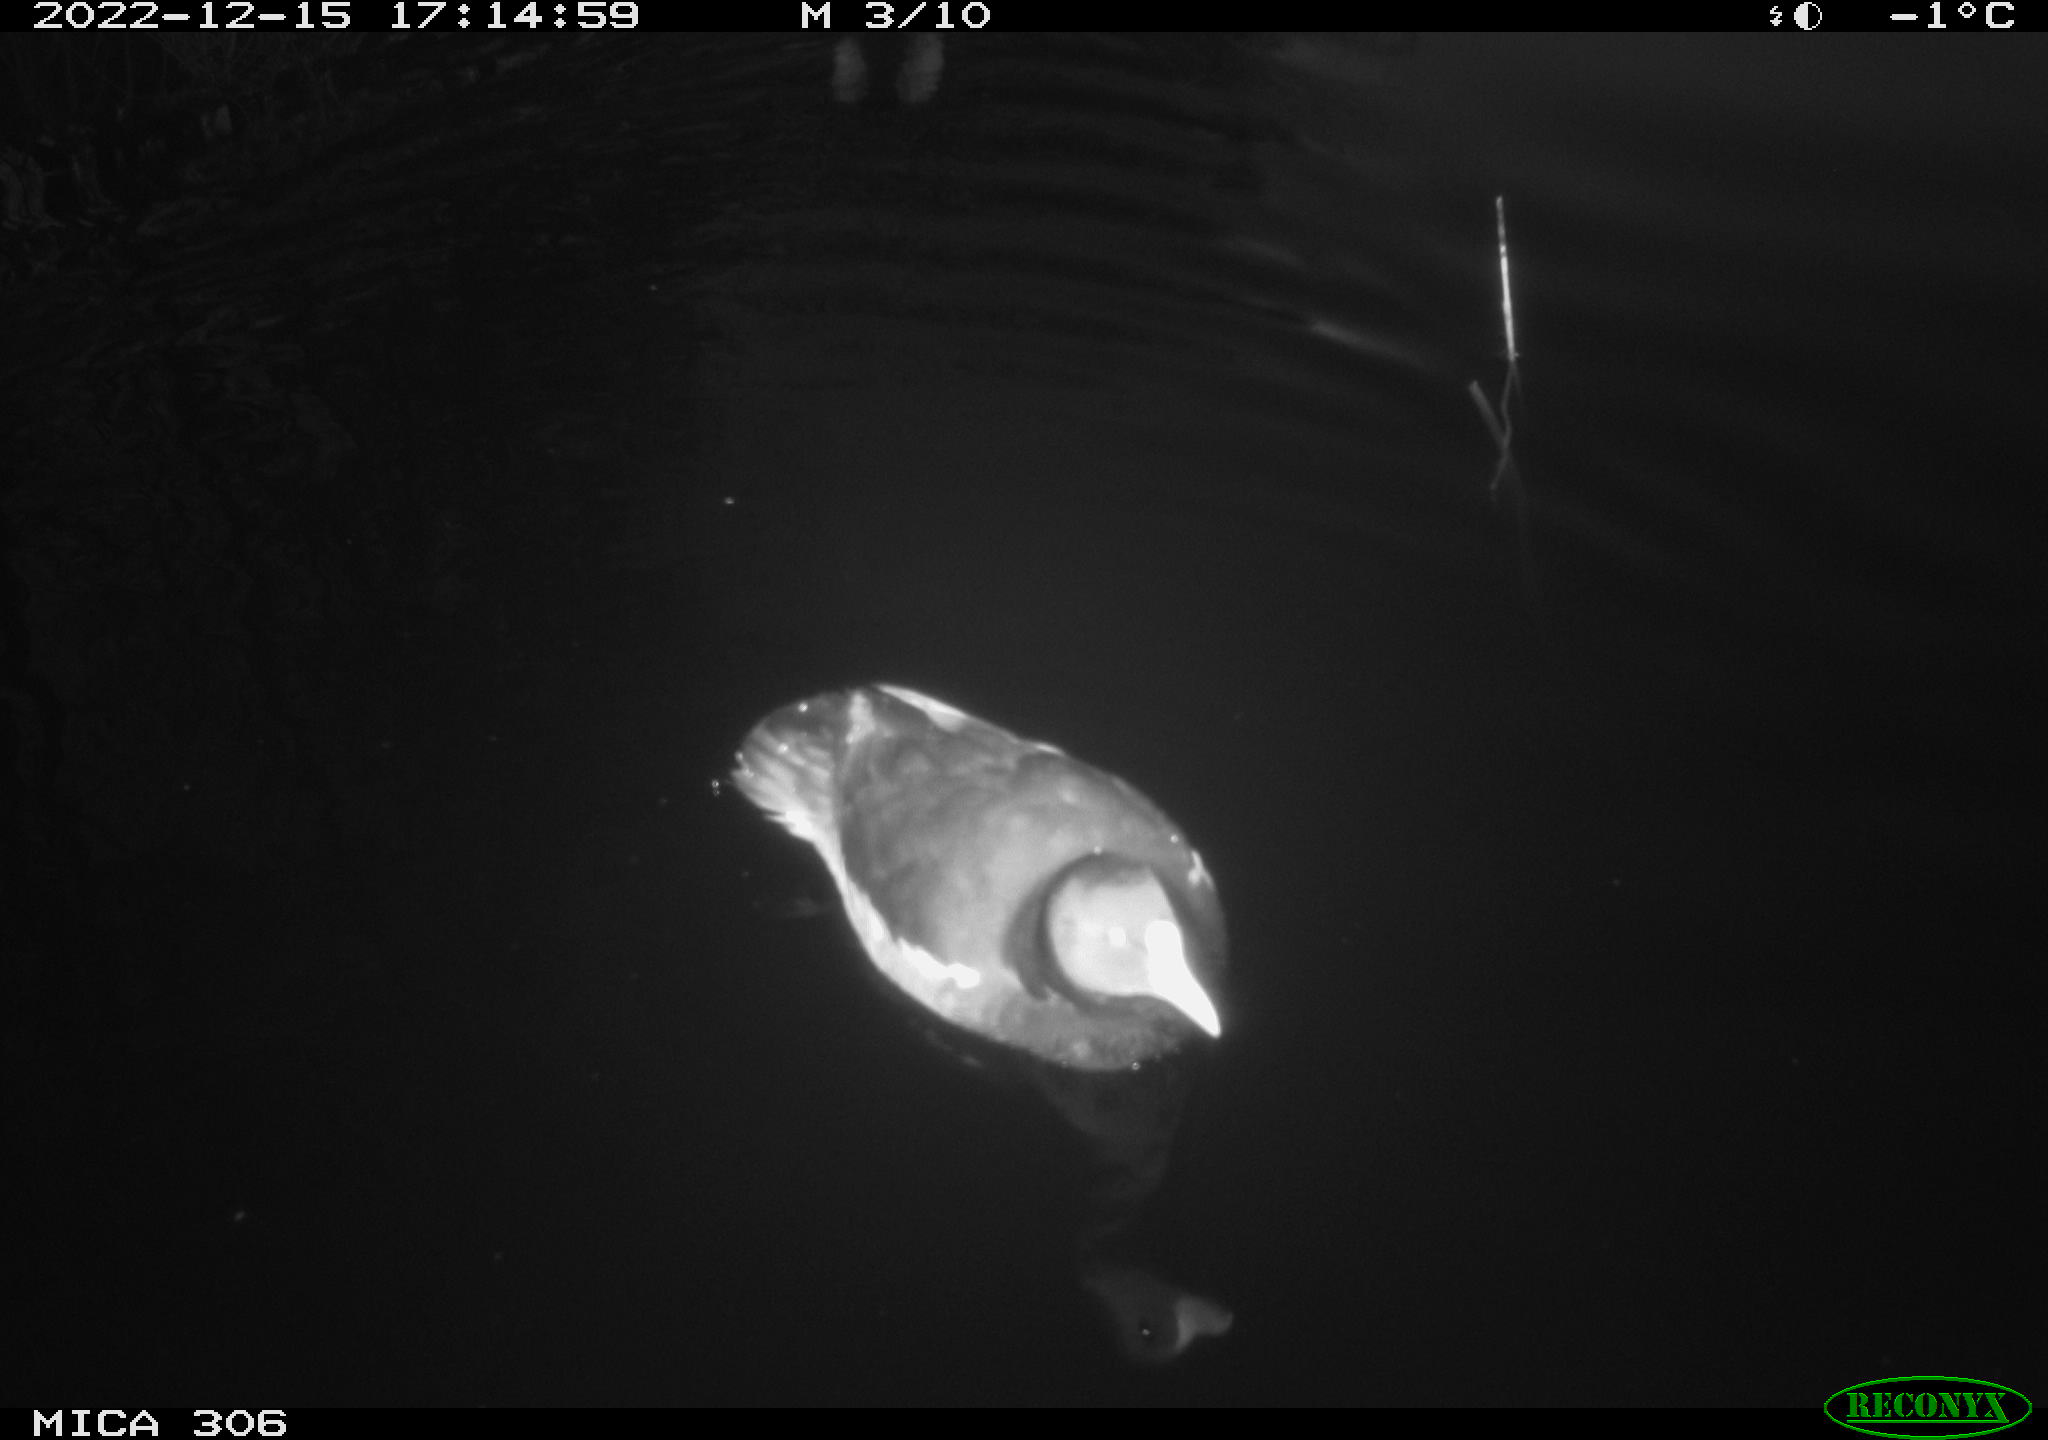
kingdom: Animalia
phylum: Chordata
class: Aves
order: Gruiformes
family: Rallidae
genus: Gallinula
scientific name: Gallinula chloropus
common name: Common moorhen
